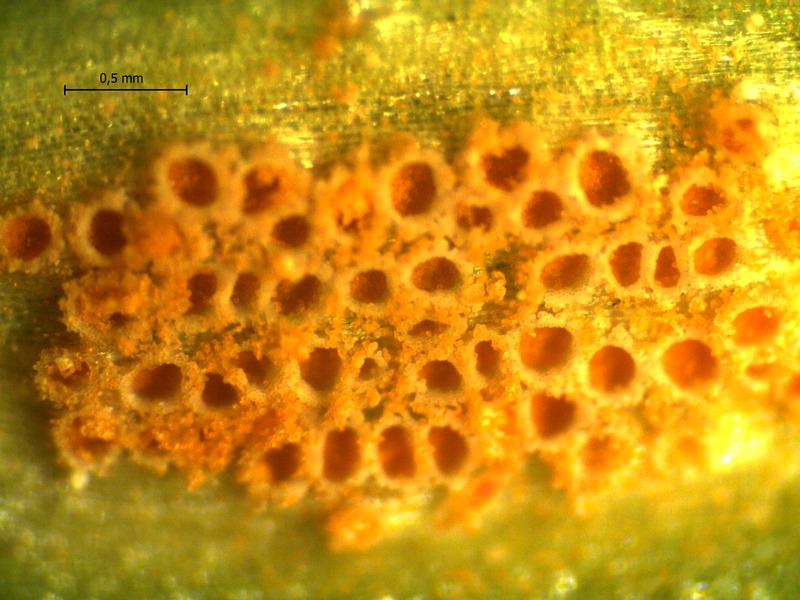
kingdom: Fungi
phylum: Basidiomycota
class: Pucciniomycetes
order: Pucciniales
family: Pucciniaceae
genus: Puccinia
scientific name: Puccinia sessilis
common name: Arum rust
